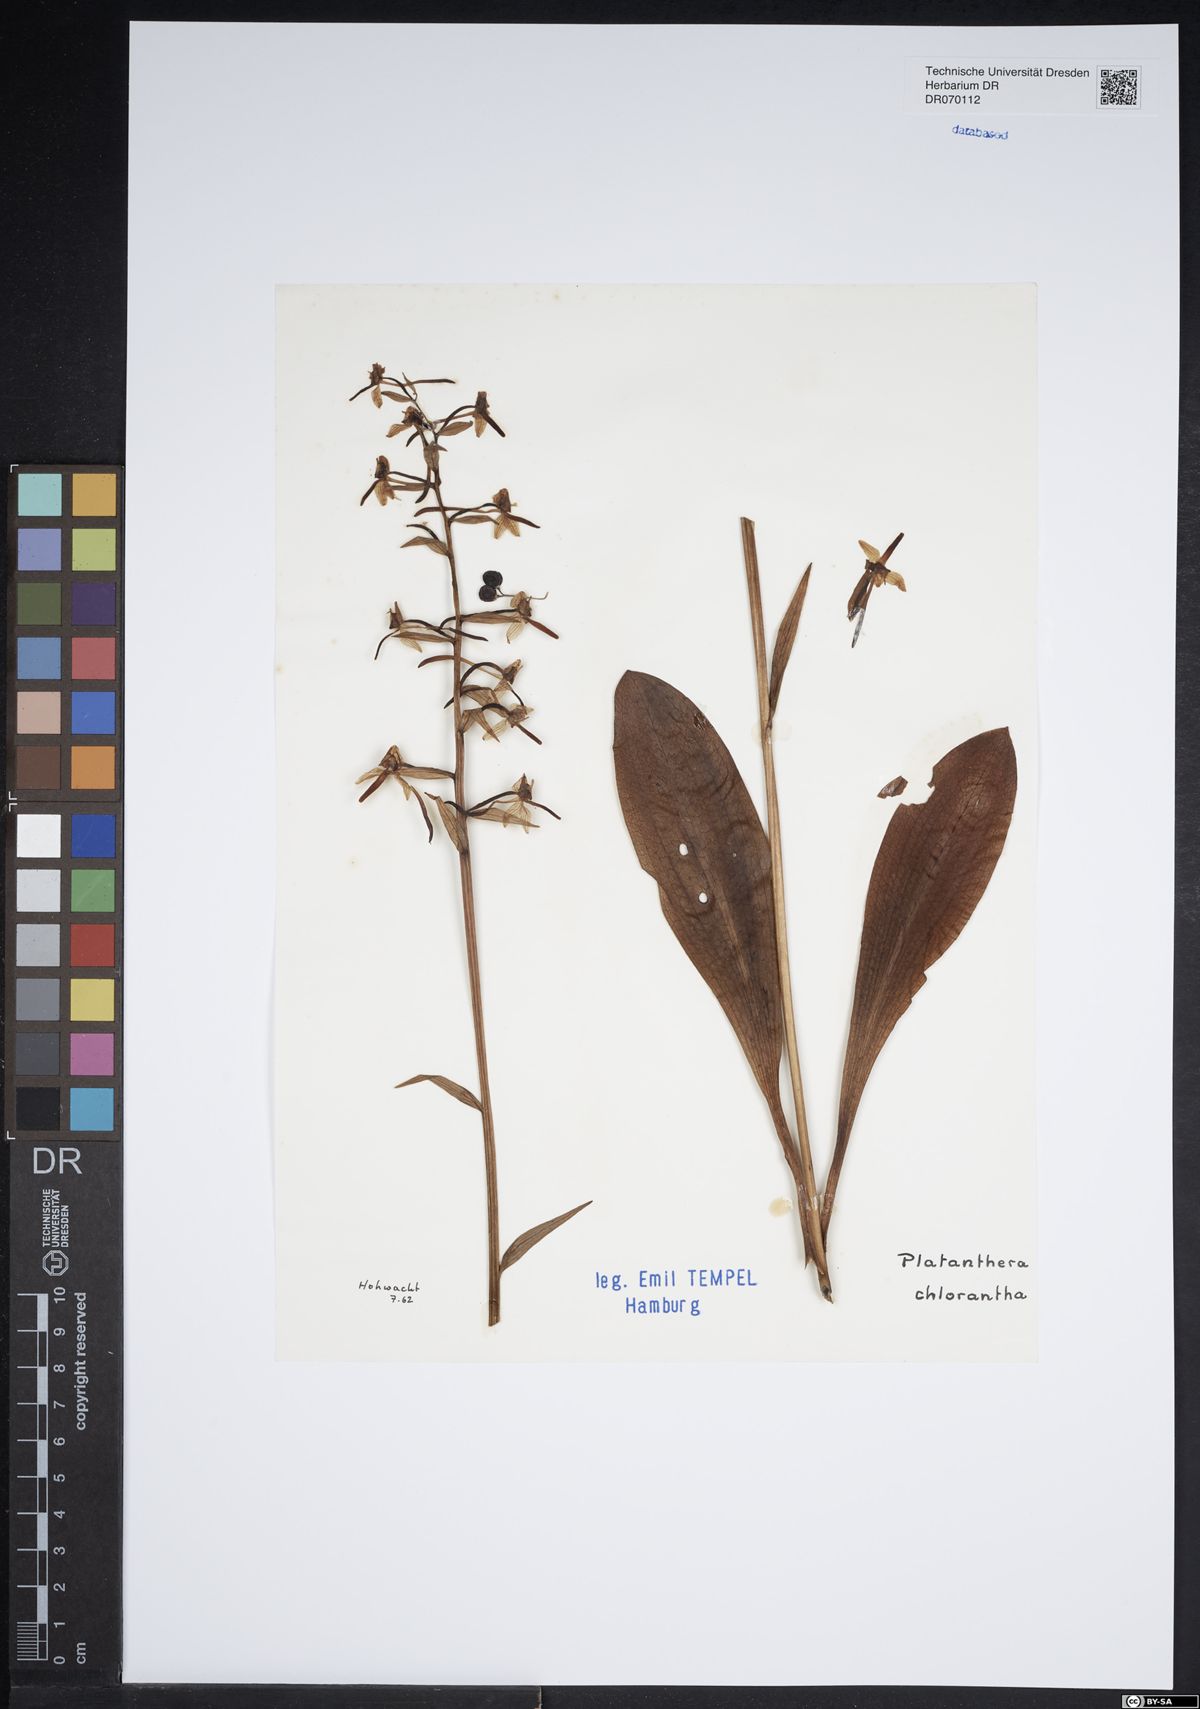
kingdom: Plantae
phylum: Tracheophyta
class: Liliopsida
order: Asparagales
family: Orchidaceae
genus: Platanthera
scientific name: Platanthera chlorantha
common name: Greater butterfly-orchid
